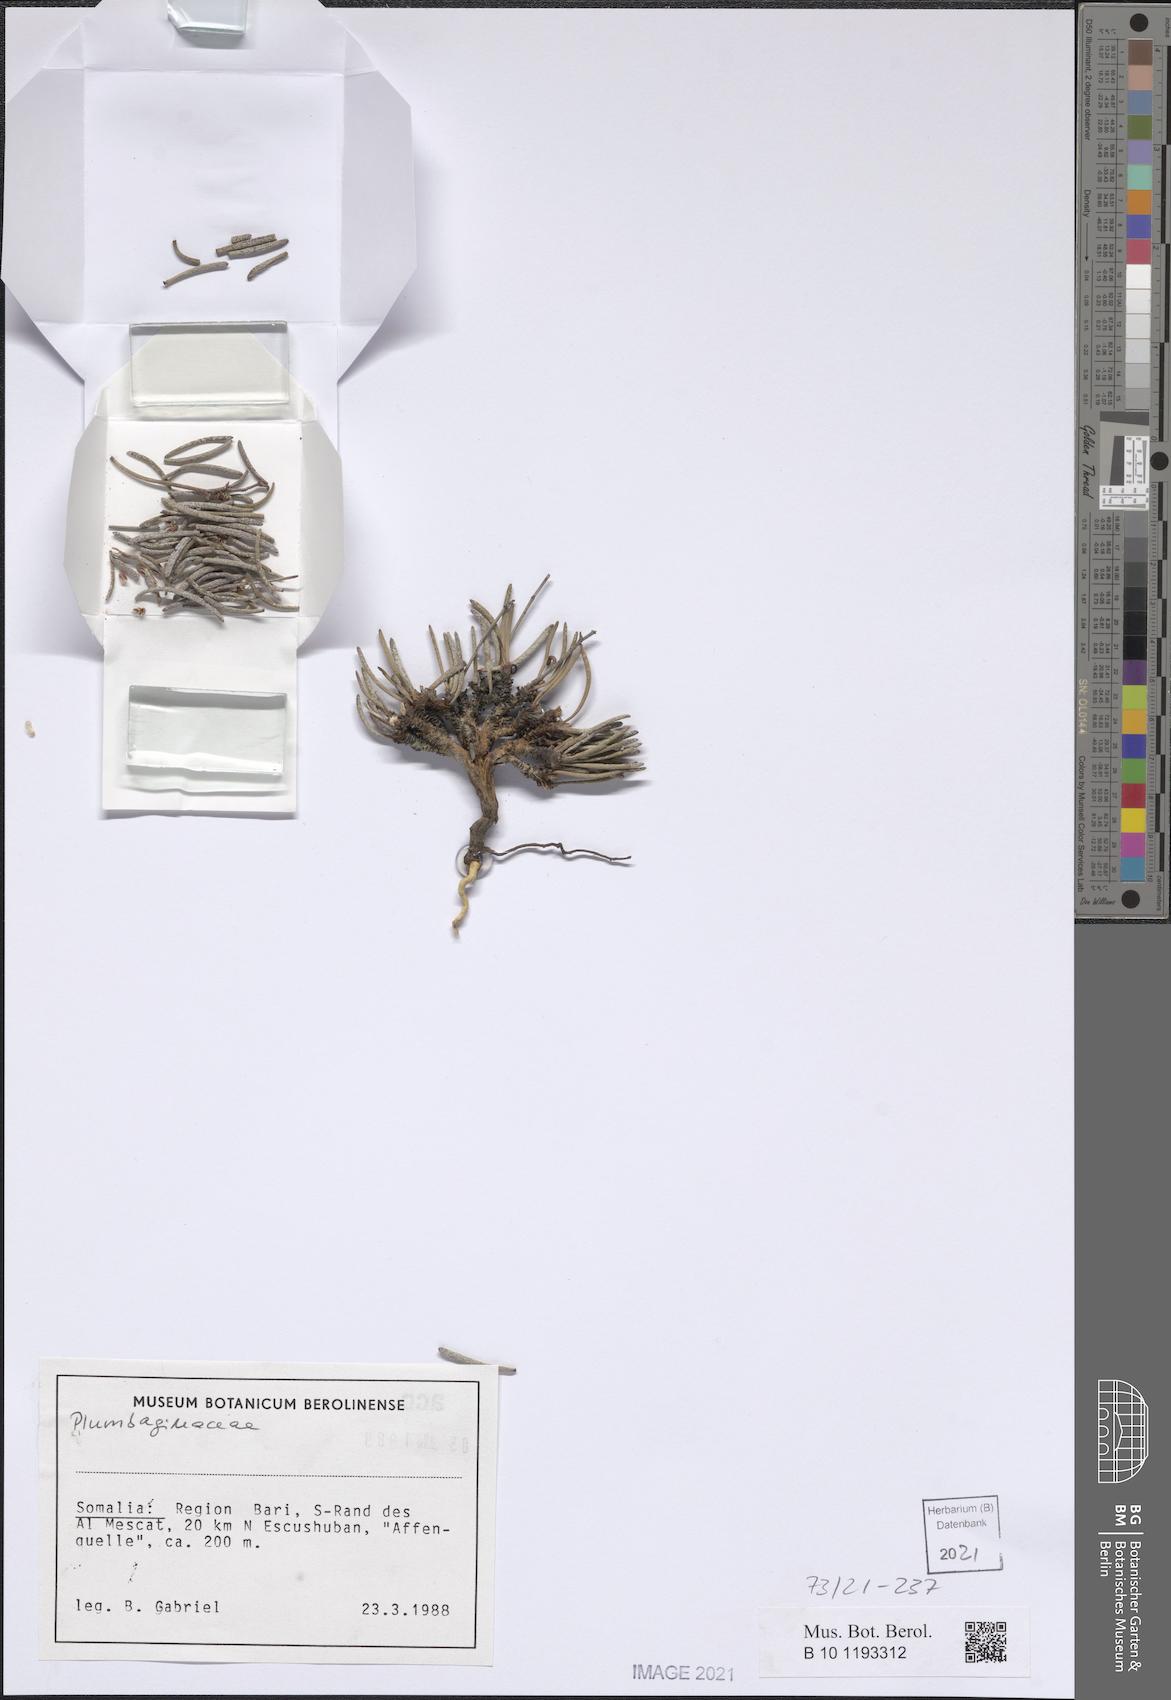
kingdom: Plantae
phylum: Tracheophyta
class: Magnoliopsida
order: Caryophyllales
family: Plumbaginaceae
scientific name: Plumbaginaceae
